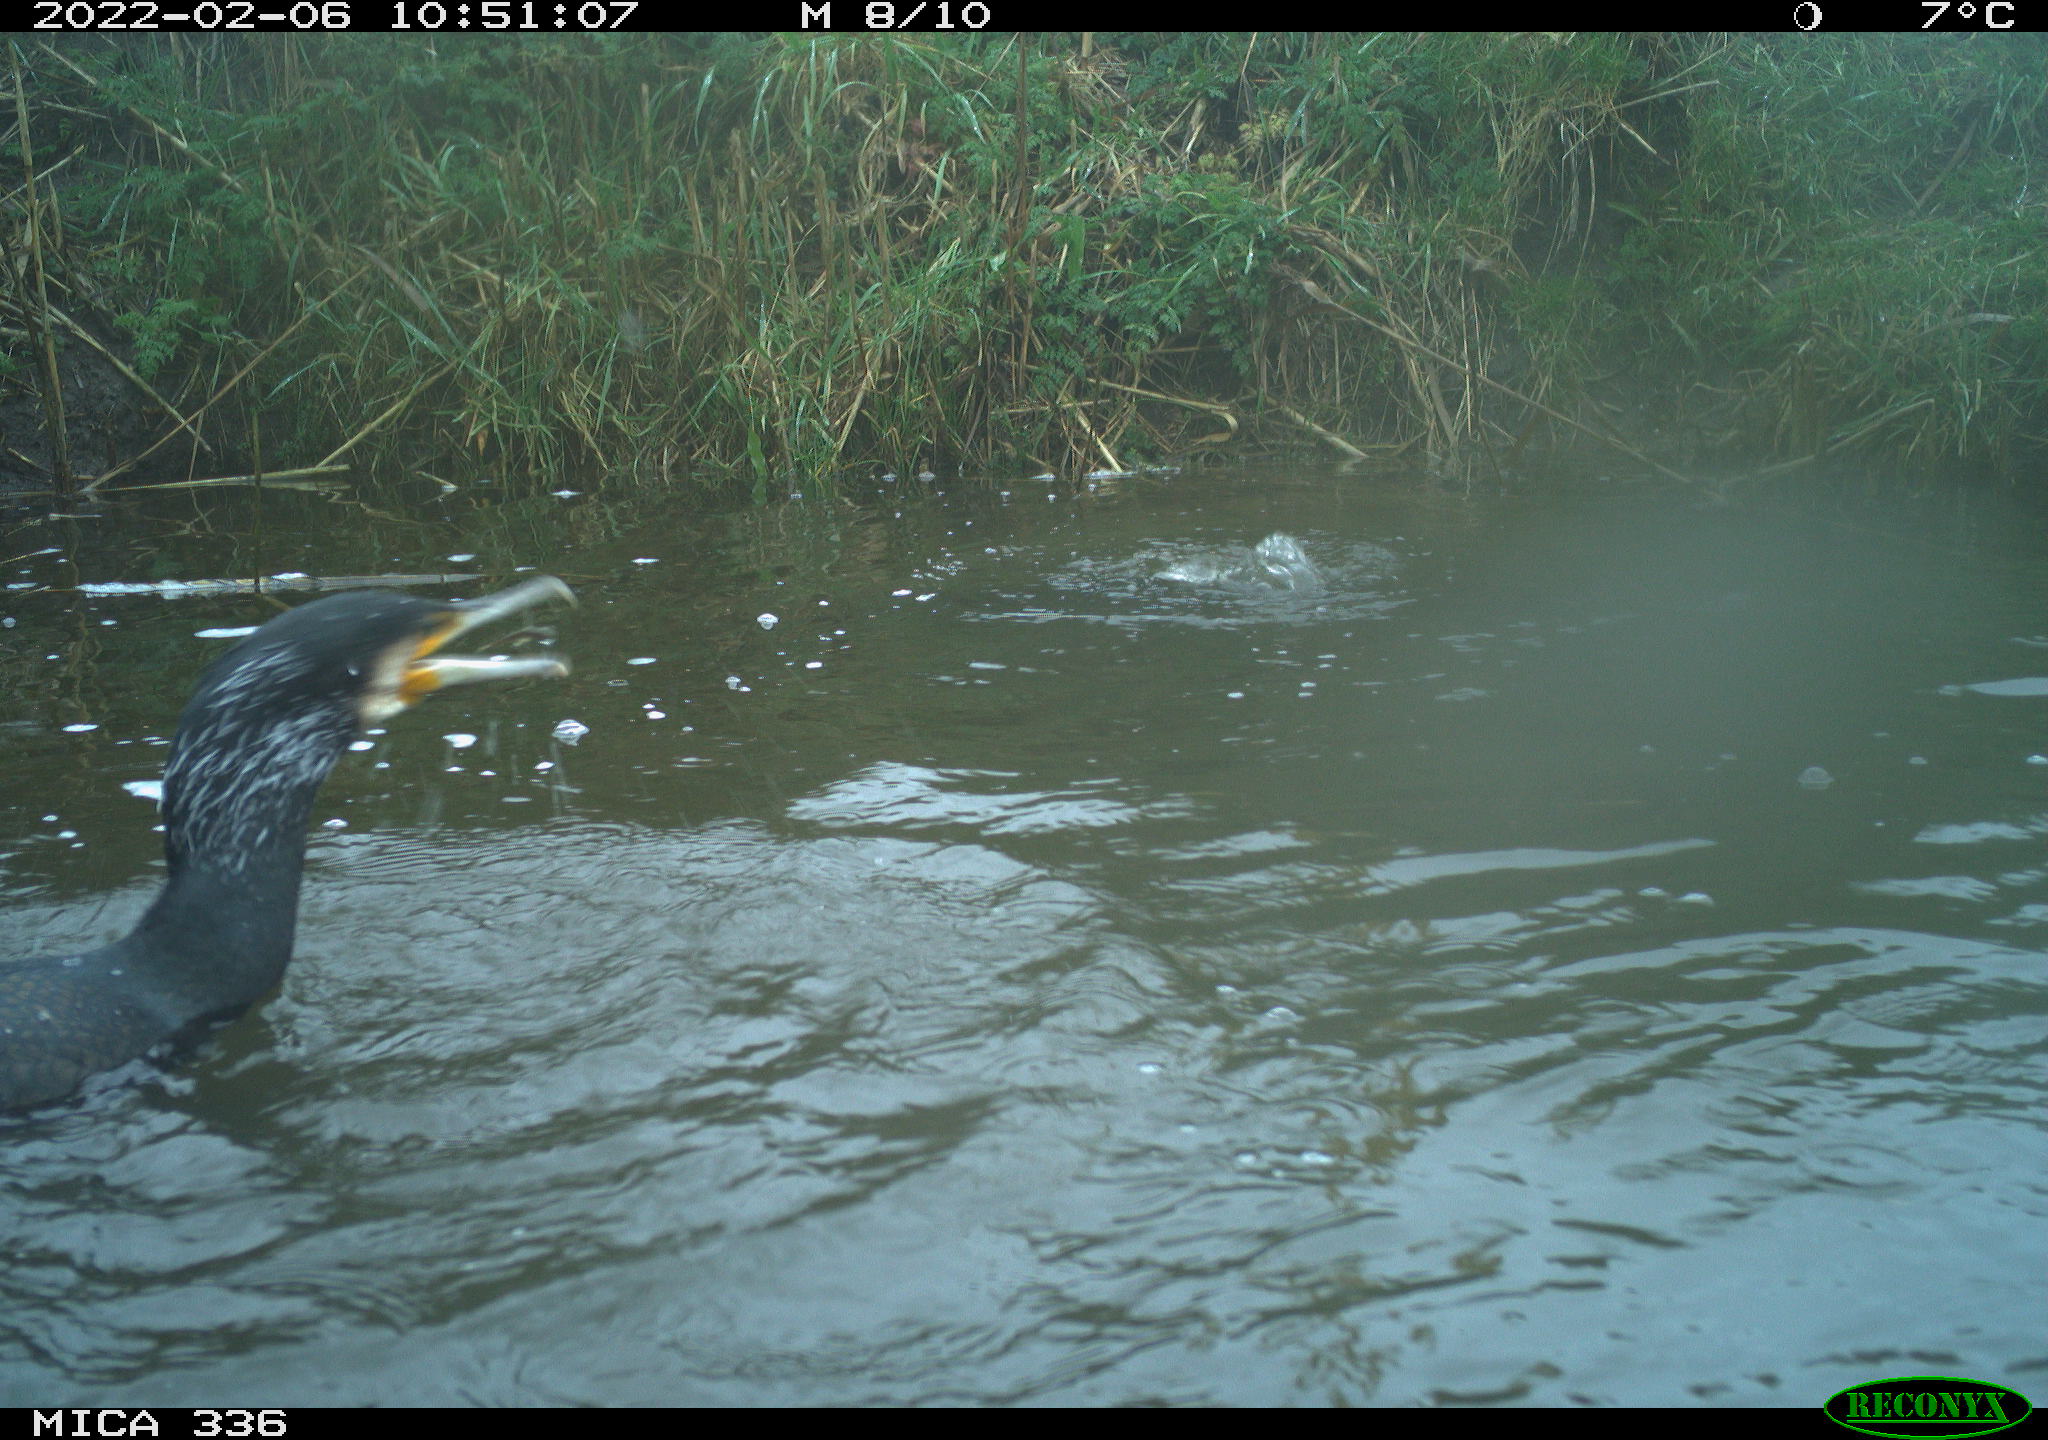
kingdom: Animalia
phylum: Chordata
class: Aves
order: Suliformes
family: Phalacrocoracidae
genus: Phalacrocorax
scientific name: Phalacrocorax carbo
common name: Great cormorant
